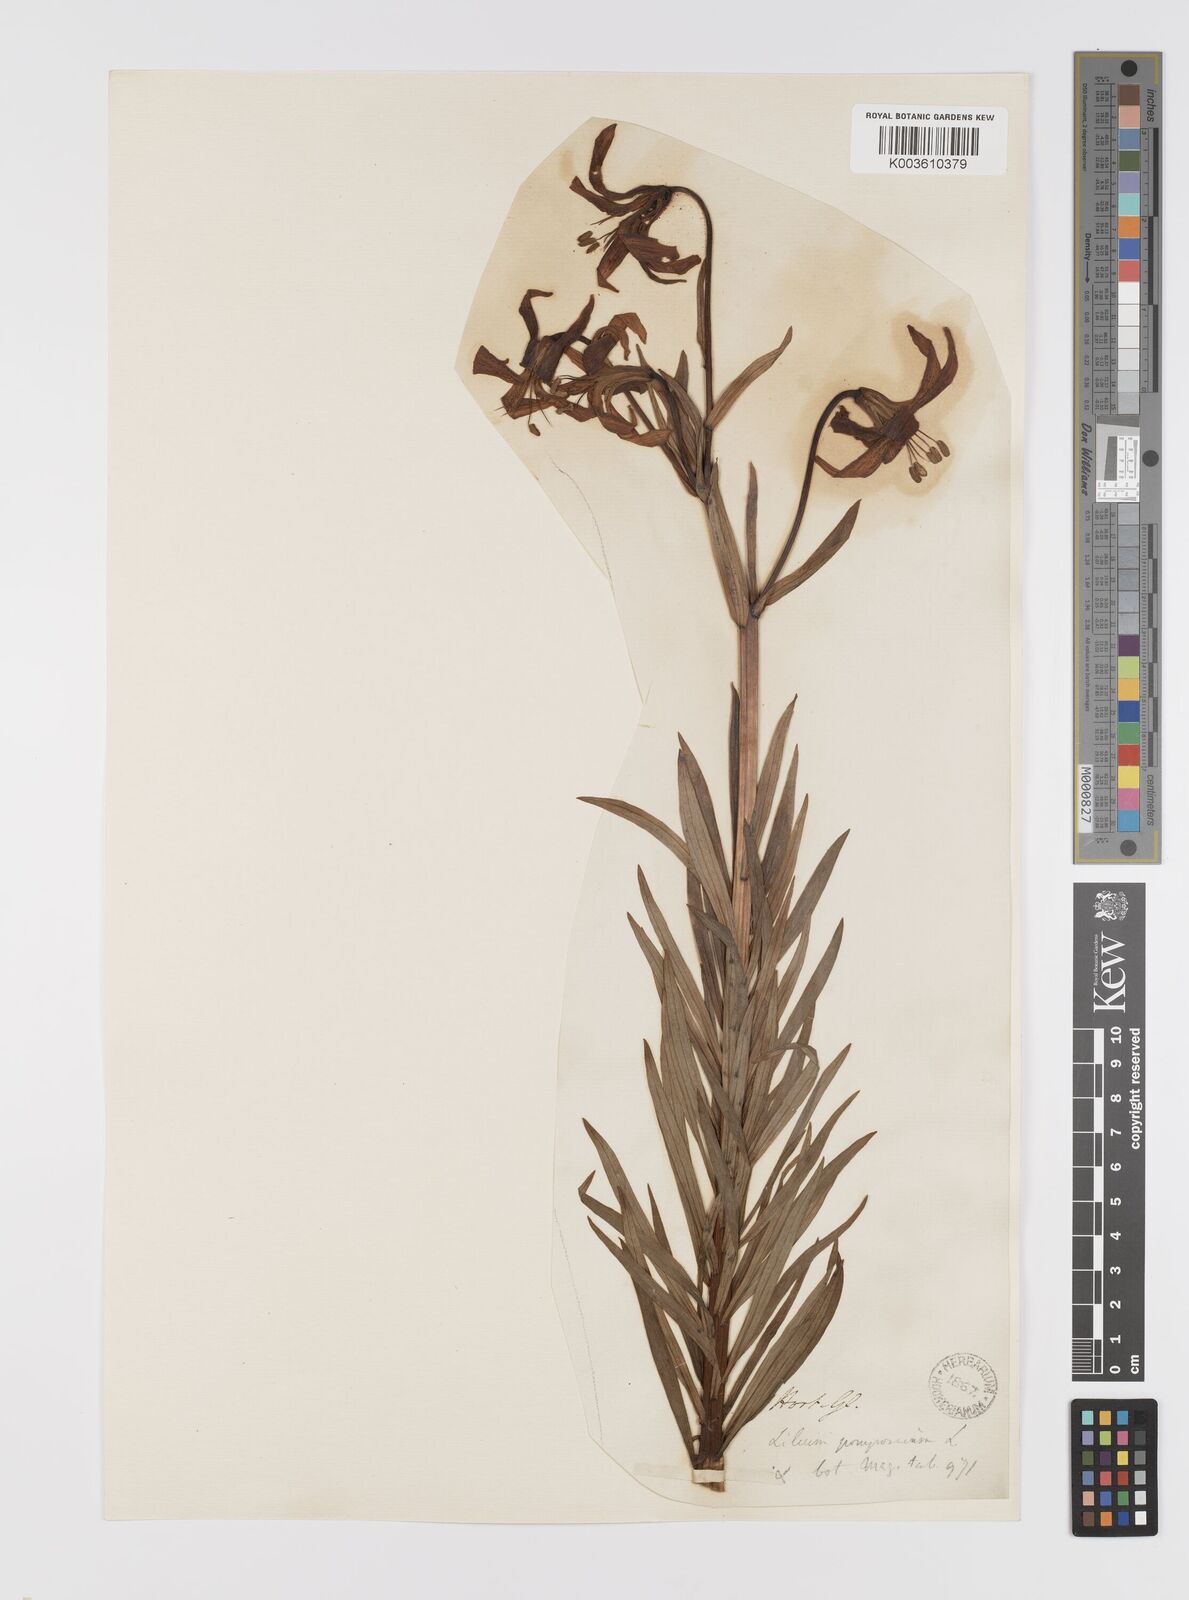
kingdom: Plantae
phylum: Tracheophyta
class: Liliopsida
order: Liliales
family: Liliaceae
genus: Lilium
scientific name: Lilium pyrenaicum
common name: Pyrenean lily
